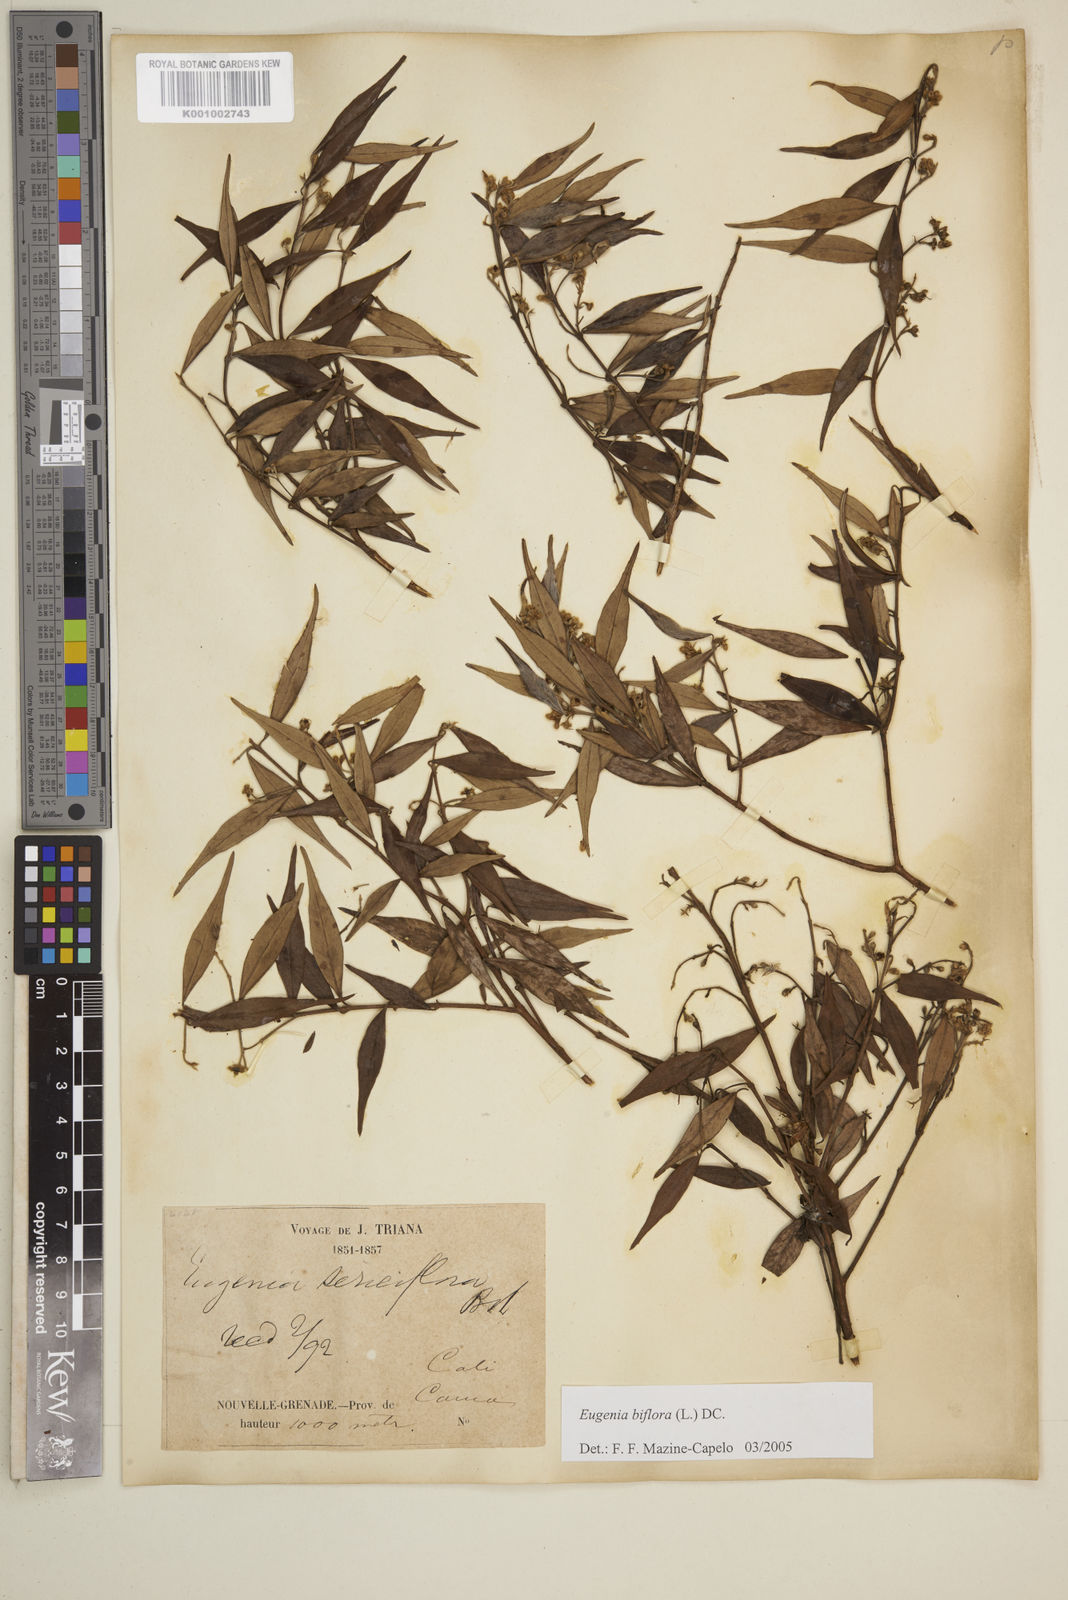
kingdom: Plantae
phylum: Tracheophyta
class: Magnoliopsida
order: Myrtales
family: Myrtaceae
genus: Eugenia
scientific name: Eugenia biflora
